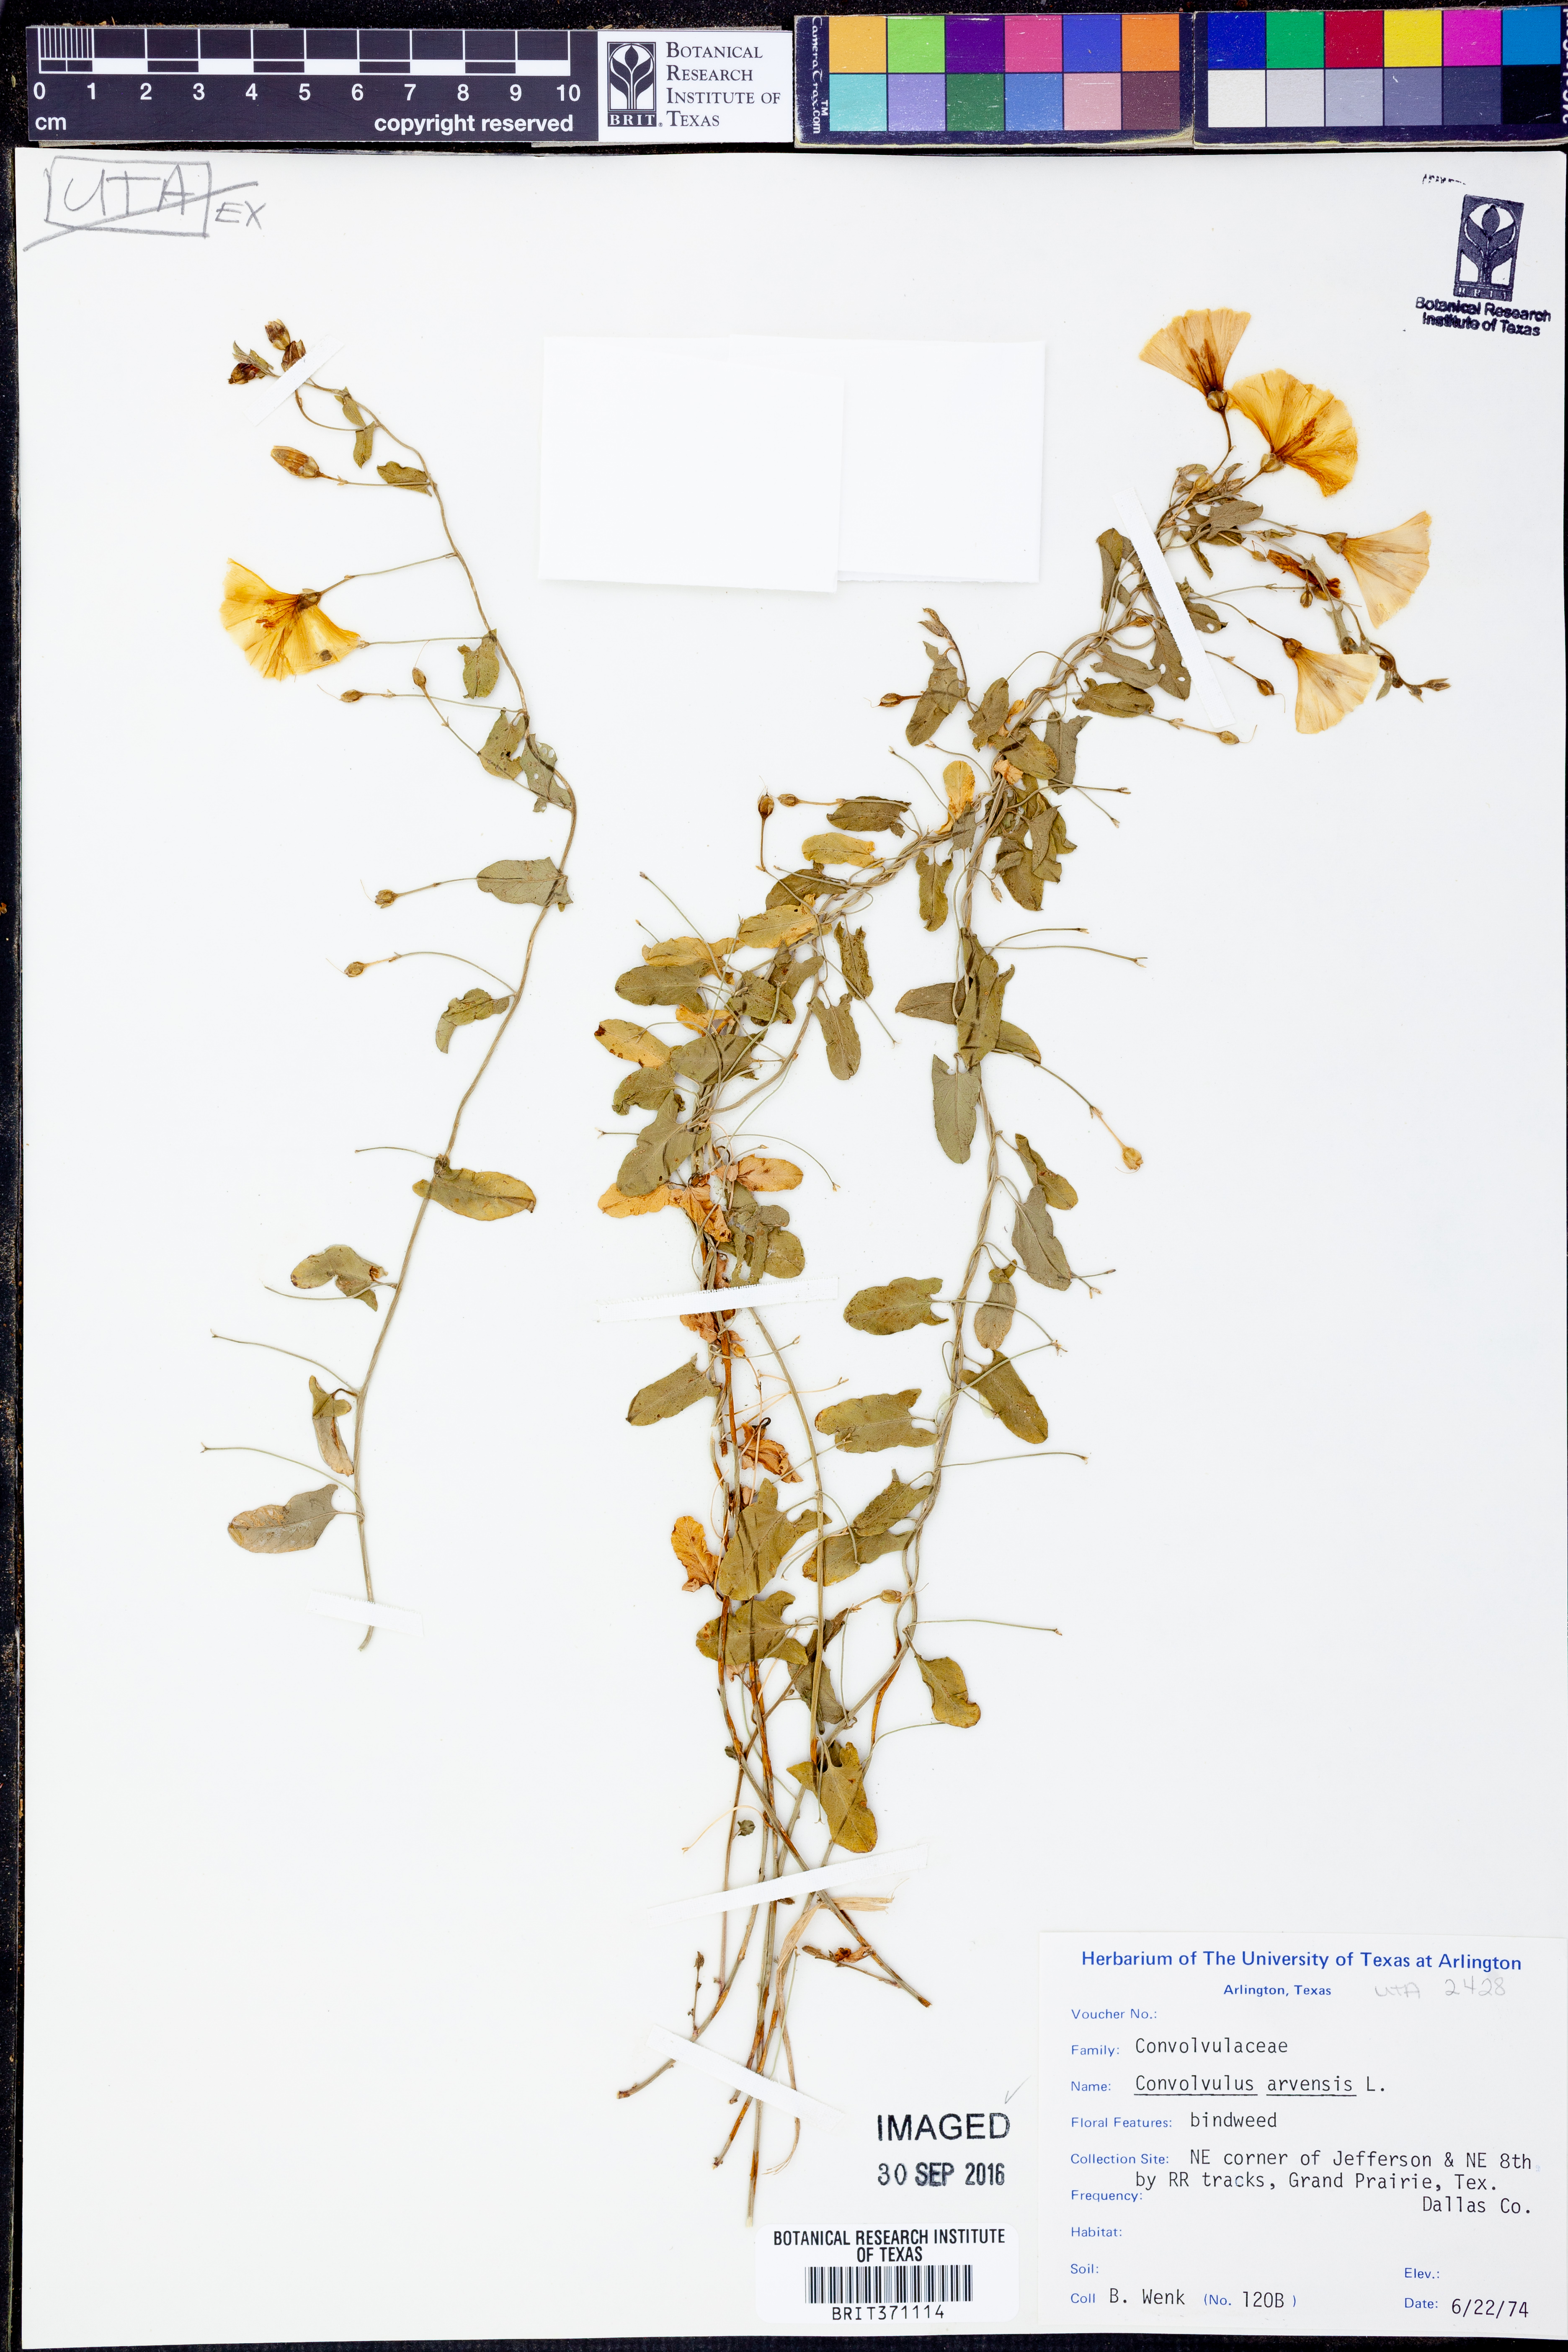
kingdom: Plantae
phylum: Tracheophyta
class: Magnoliopsida
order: Solanales
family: Convolvulaceae
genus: Convolvulus
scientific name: Convolvulus arvensis
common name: Field bindweed
